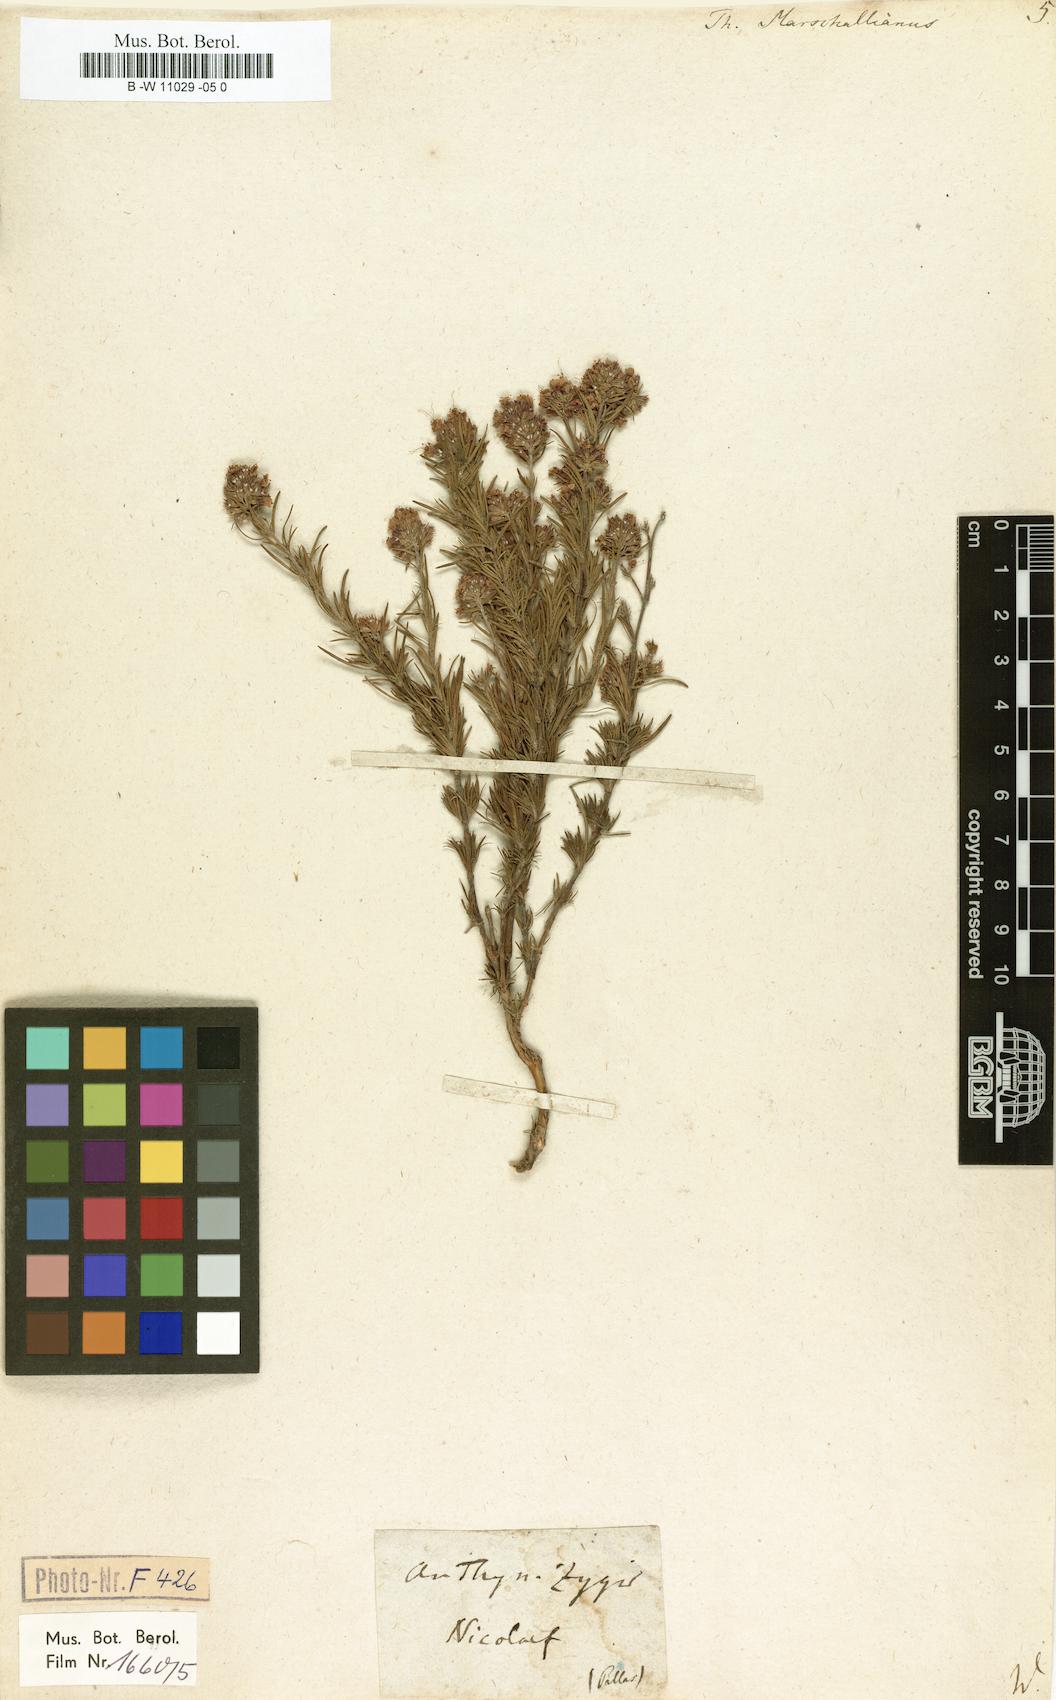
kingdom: Plantae
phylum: Tracheophyta
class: Magnoliopsida
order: Lamiales
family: Lamiaceae
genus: Thymus
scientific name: Thymus marschallianus
